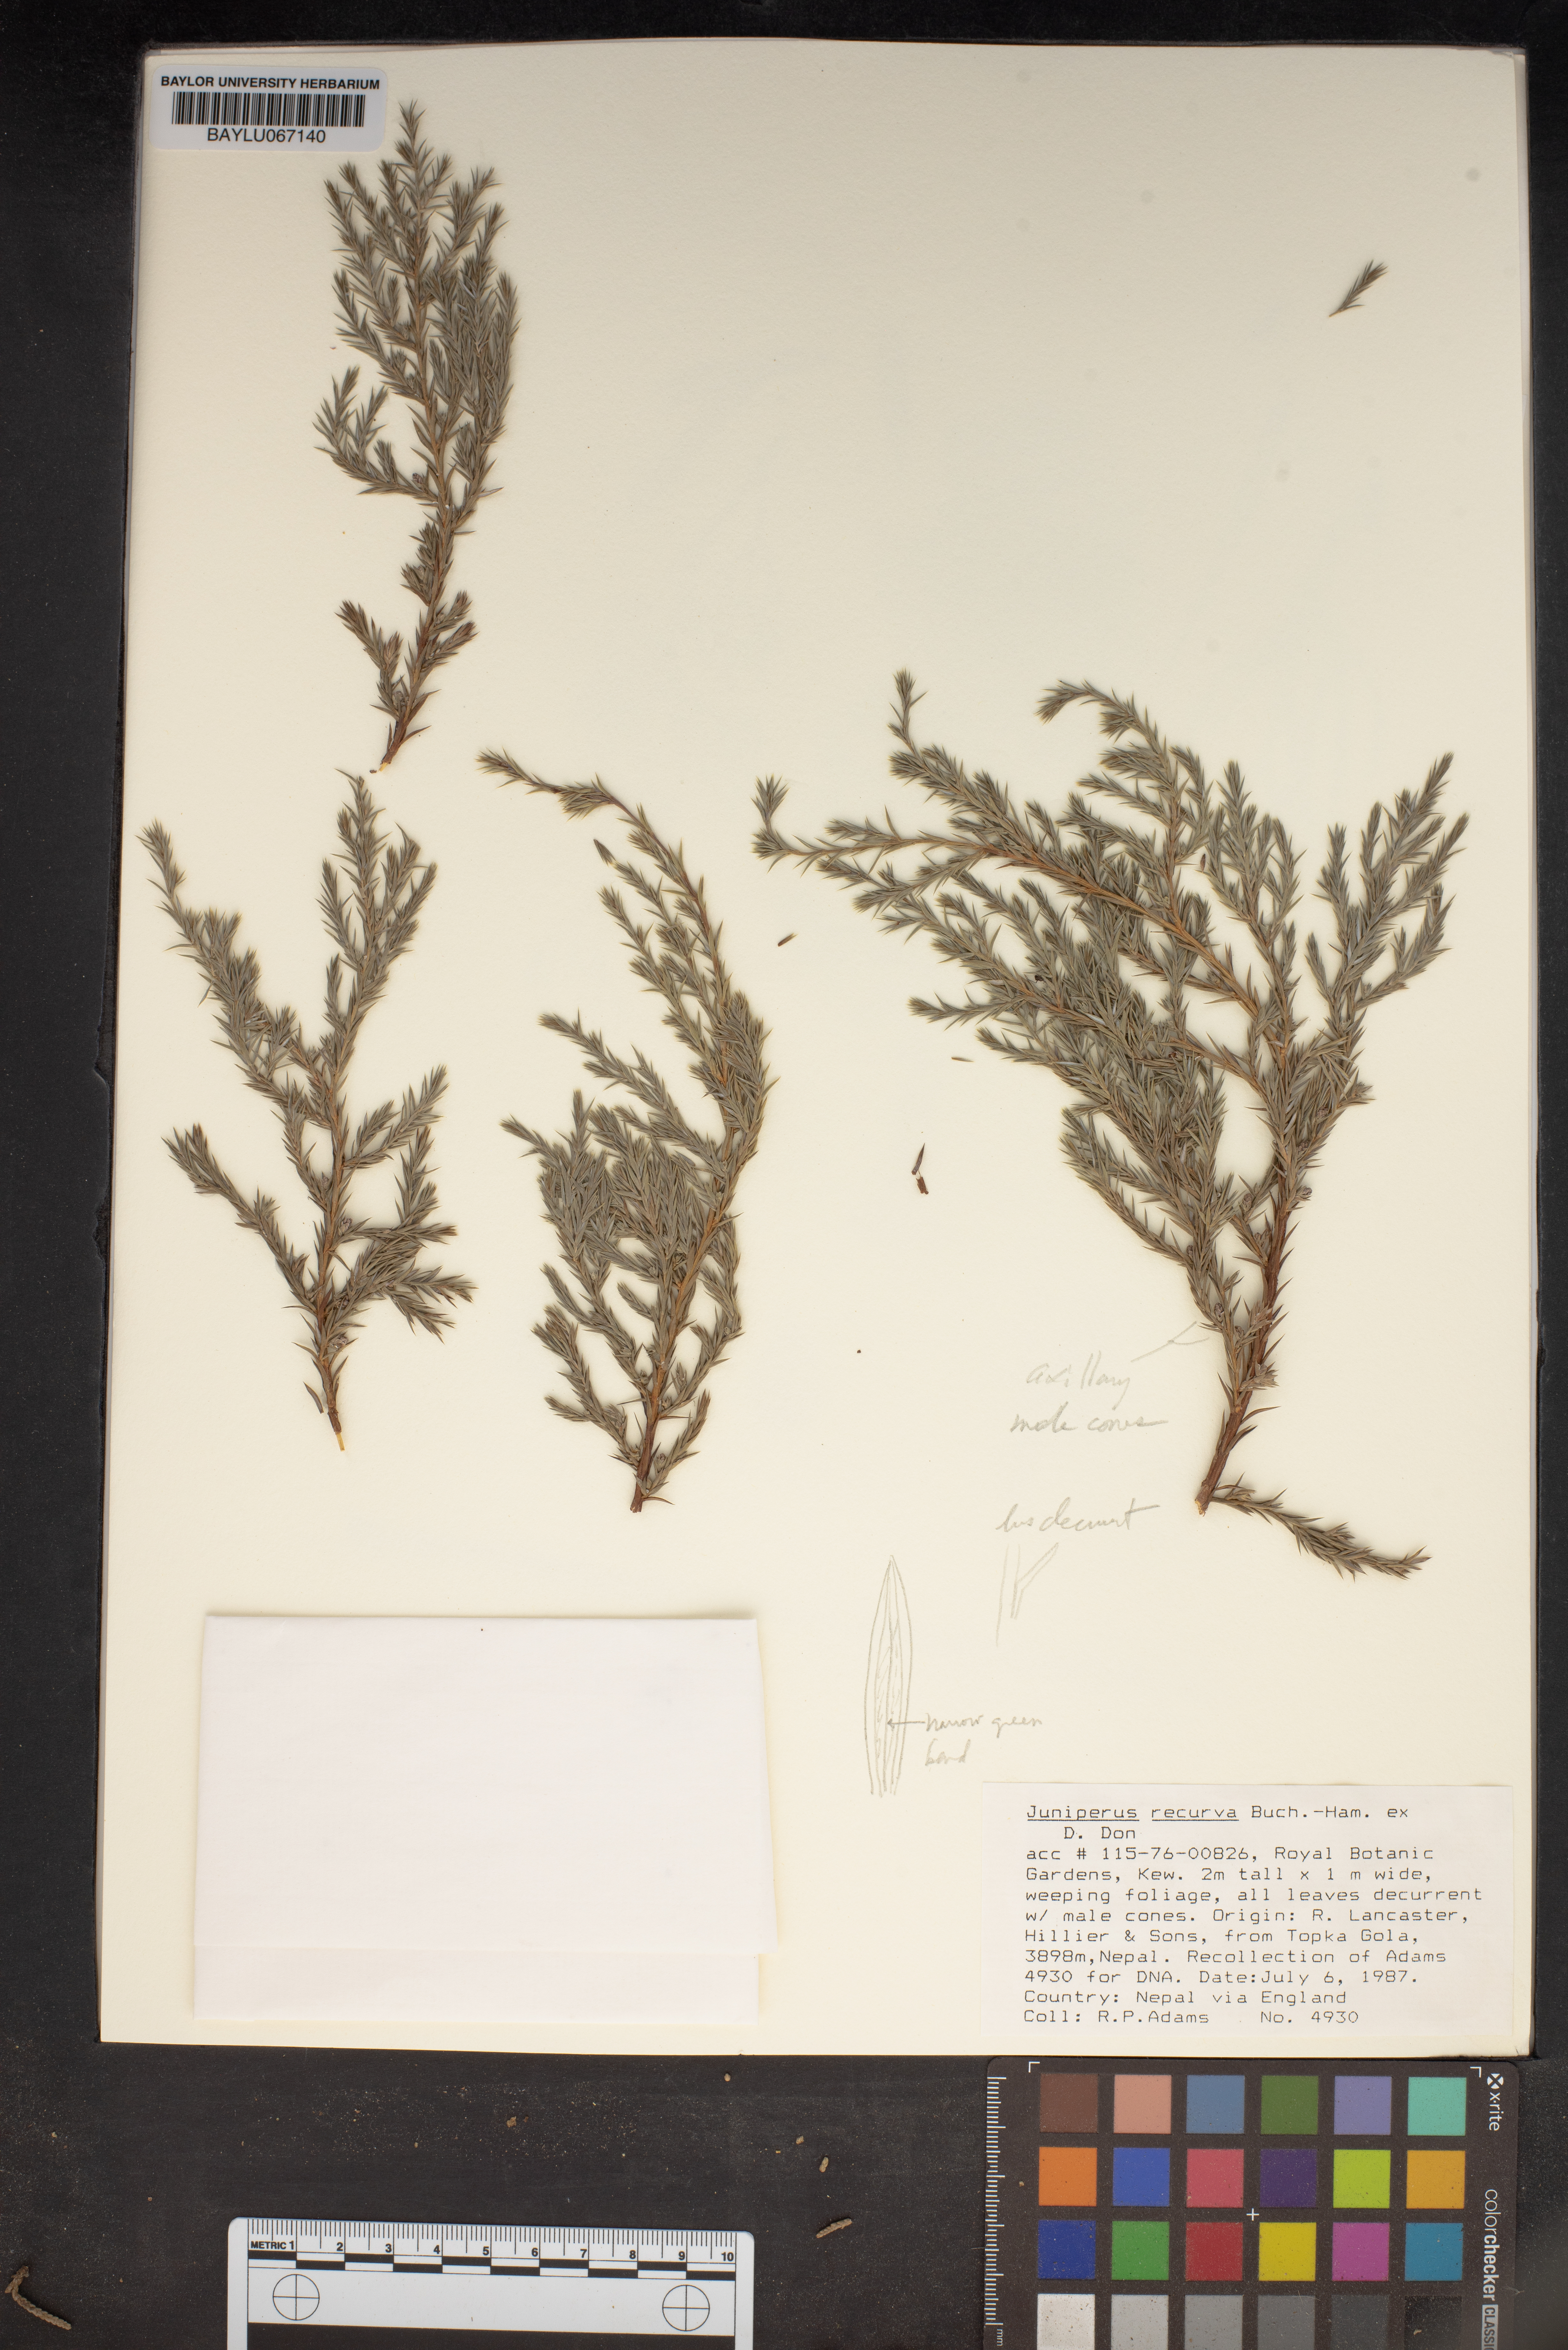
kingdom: Plantae
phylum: Tracheophyta
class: Pinopsida
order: Pinales
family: Cupressaceae
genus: Juniperus
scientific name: Juniperus recurva
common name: Drooping juniper
